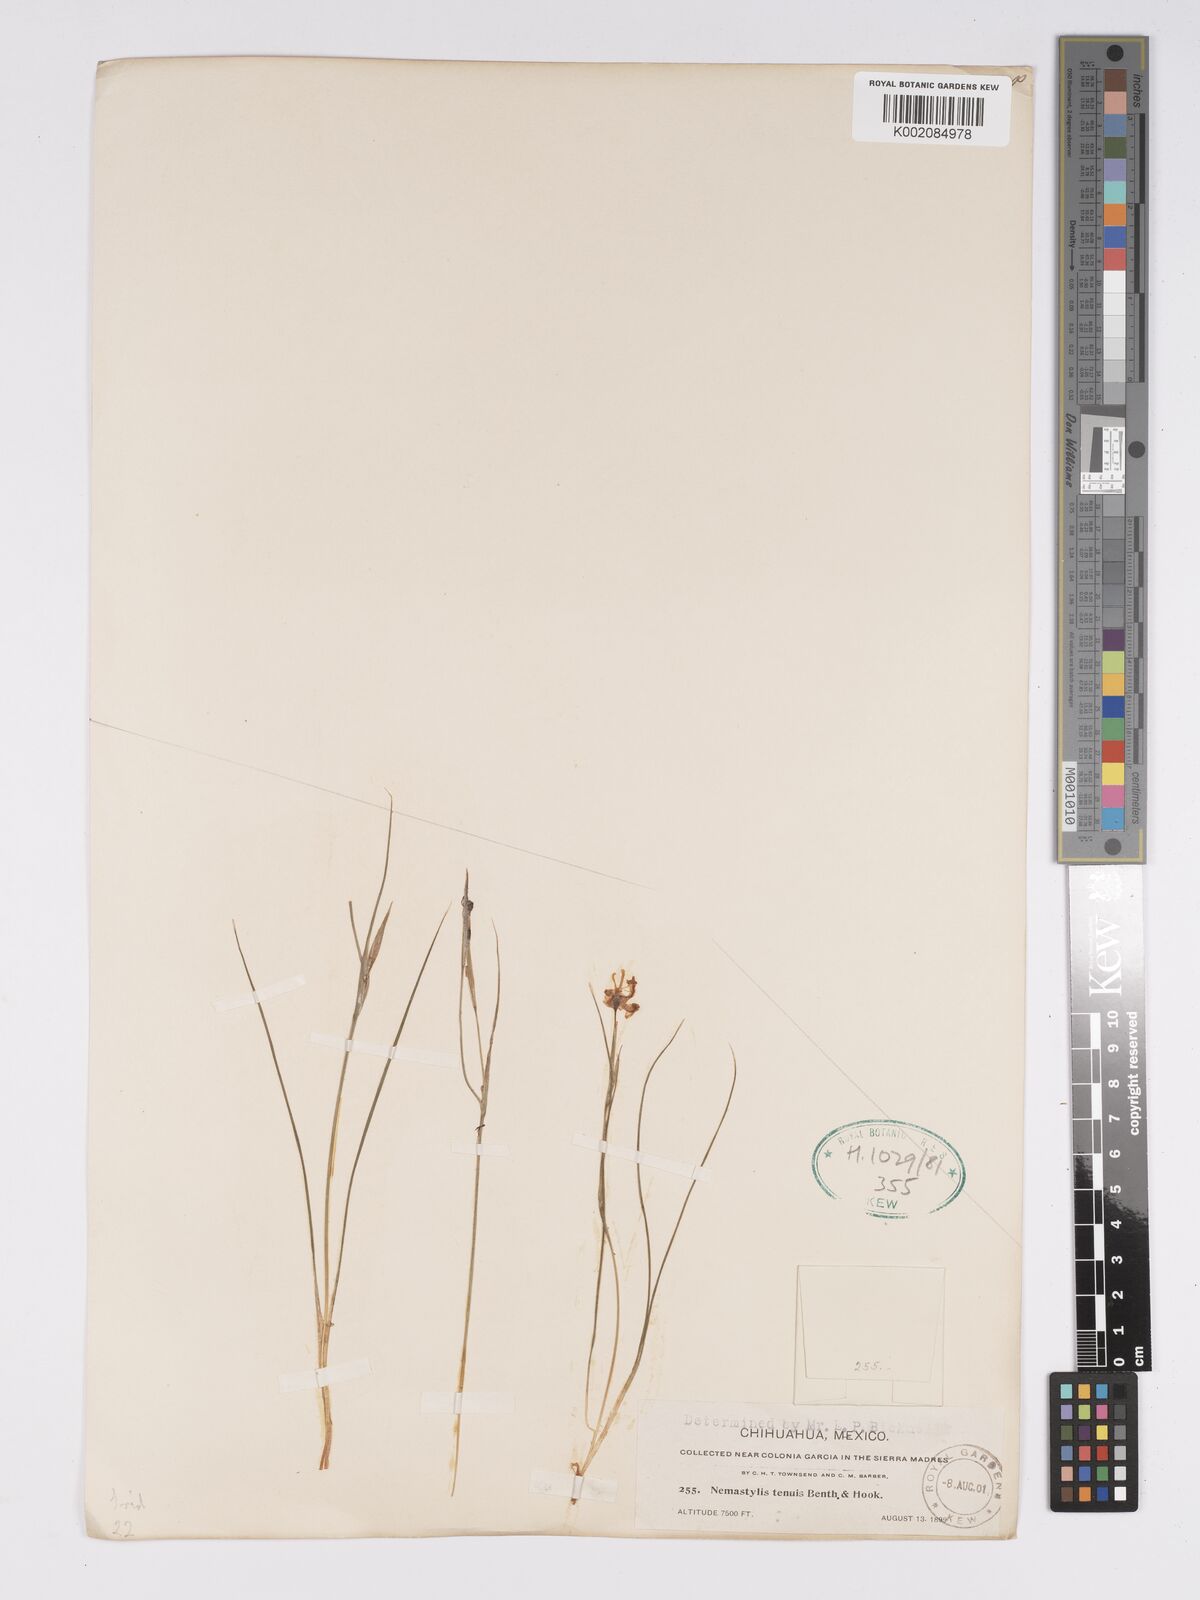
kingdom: Plantae
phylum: Tracheophyta
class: Liliopsida
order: Asparagales
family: Iridaceae
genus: Nemastylis
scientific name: Nemastylis tenuis
